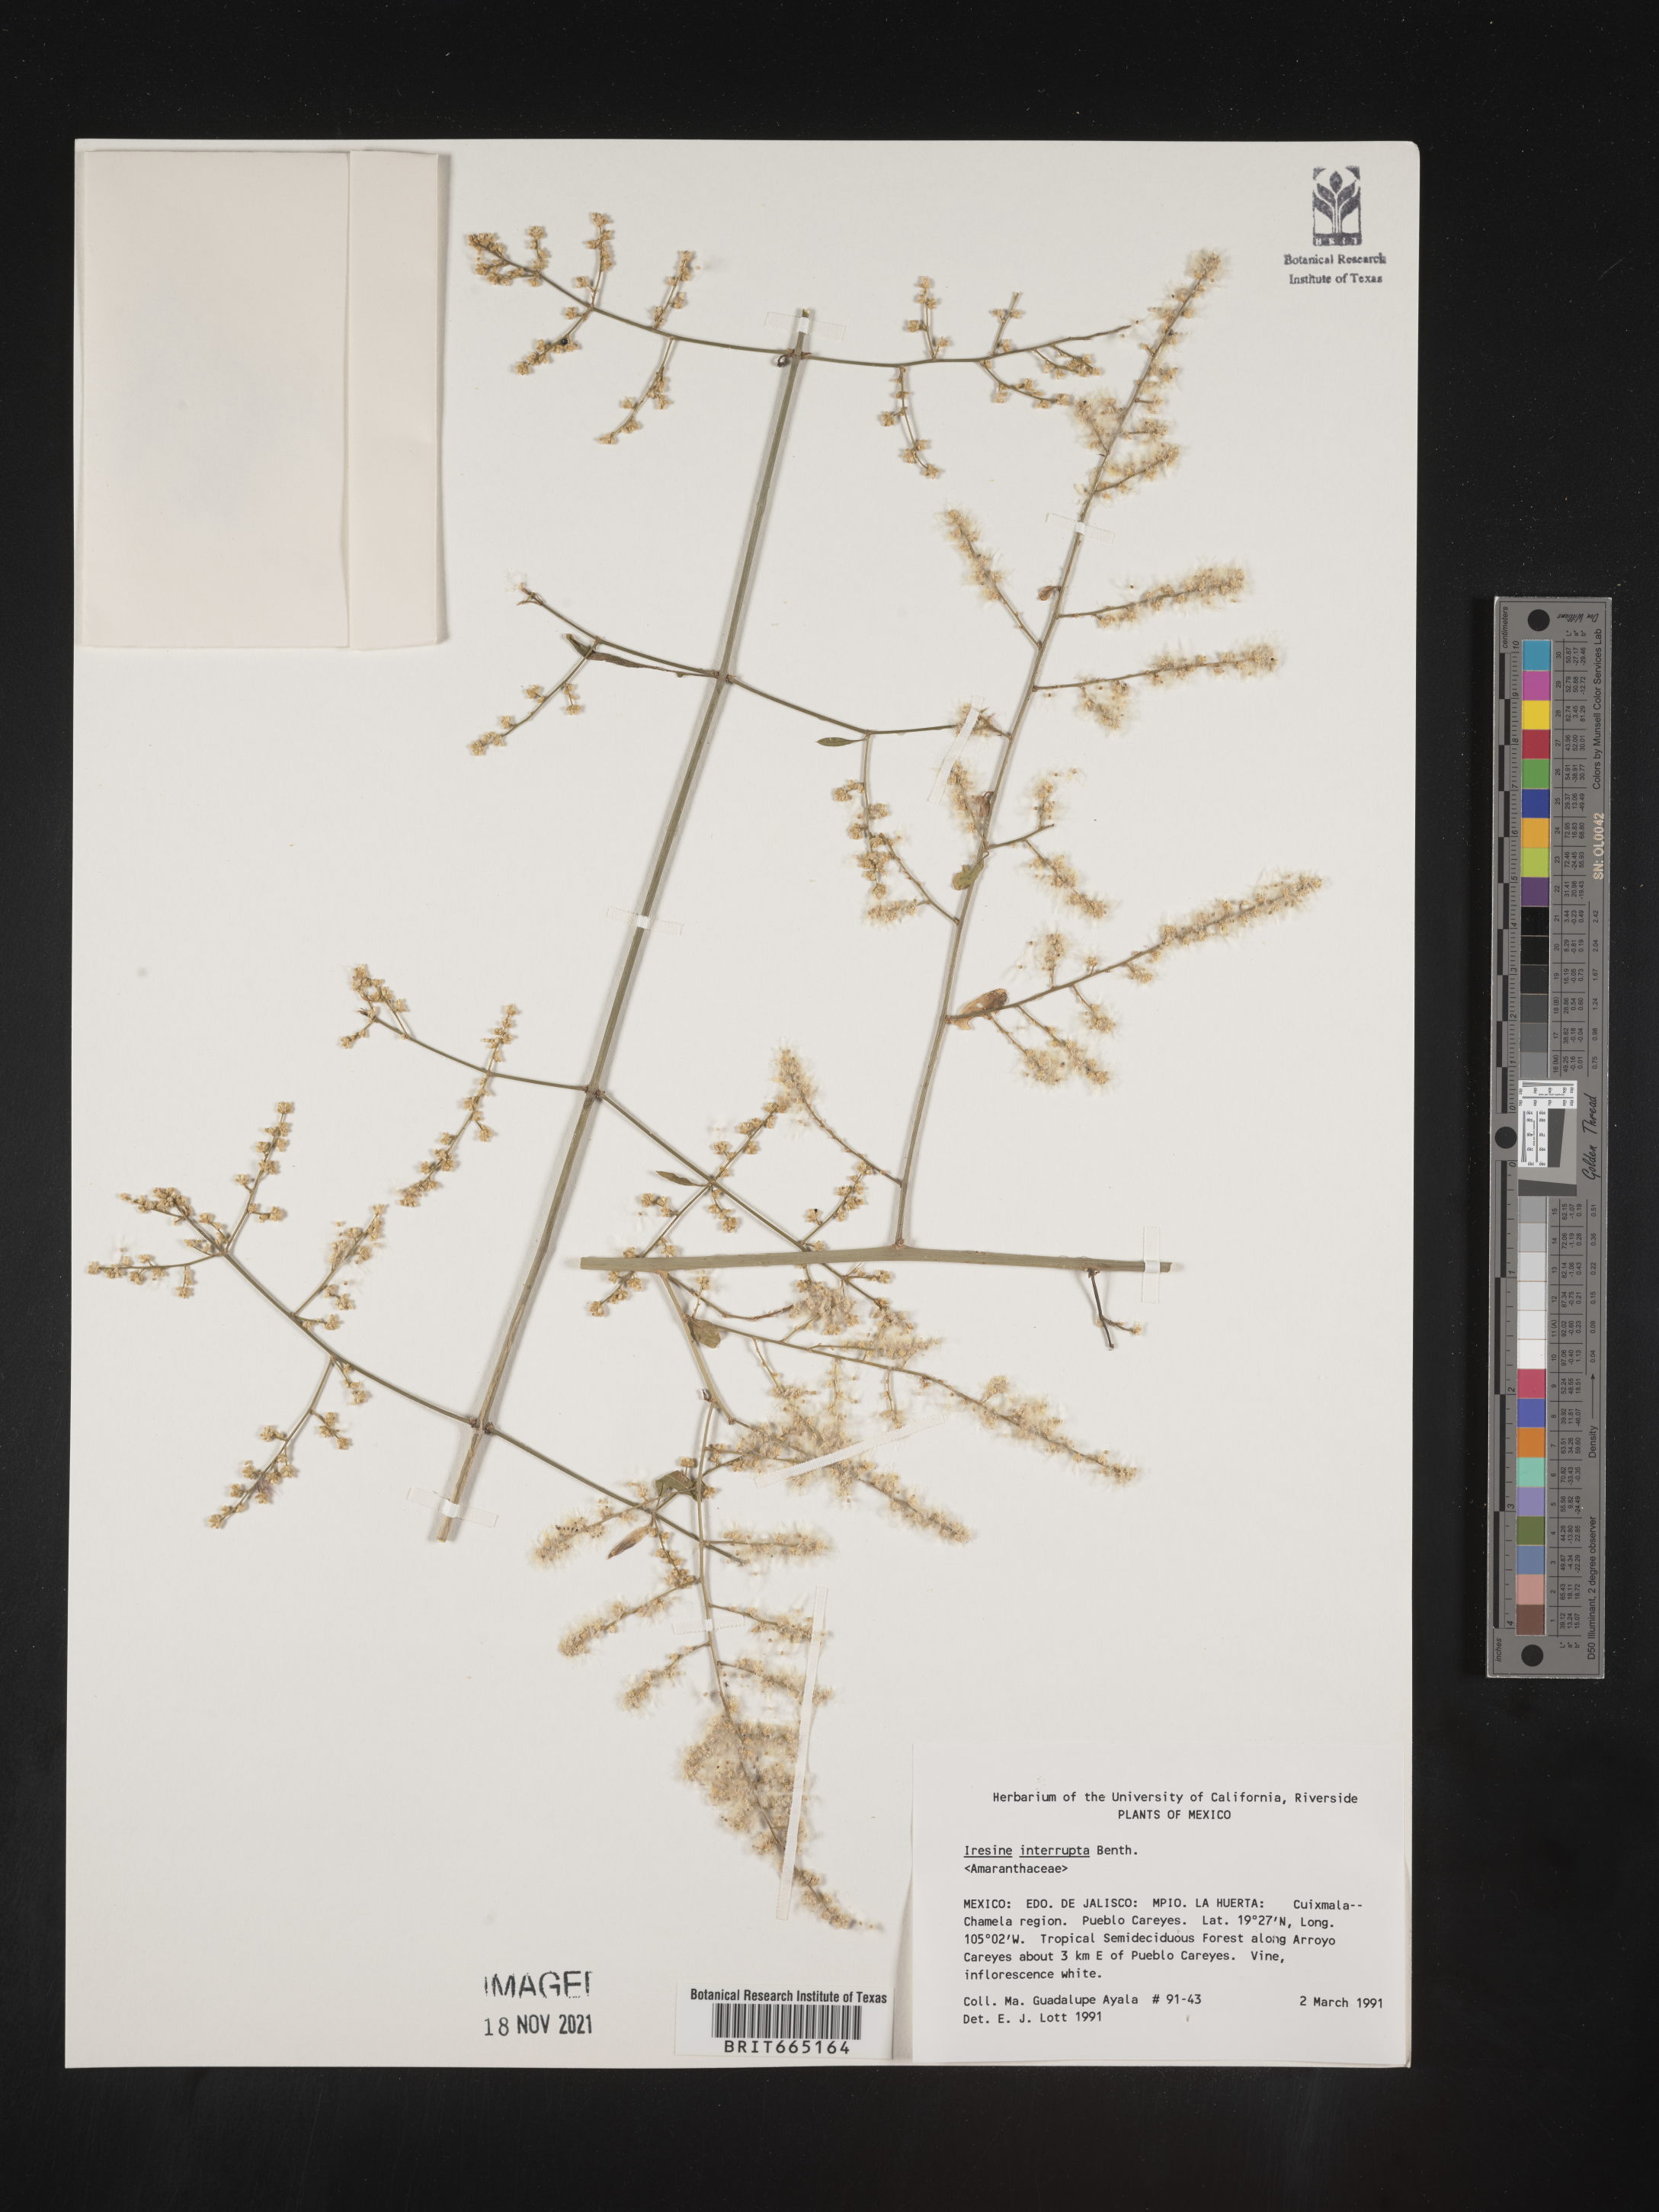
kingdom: Plantae
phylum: Tracheophyta
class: Magnoliopsida
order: Caryophyllales
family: Amaranthaceae
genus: Iresine
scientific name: Iresine
